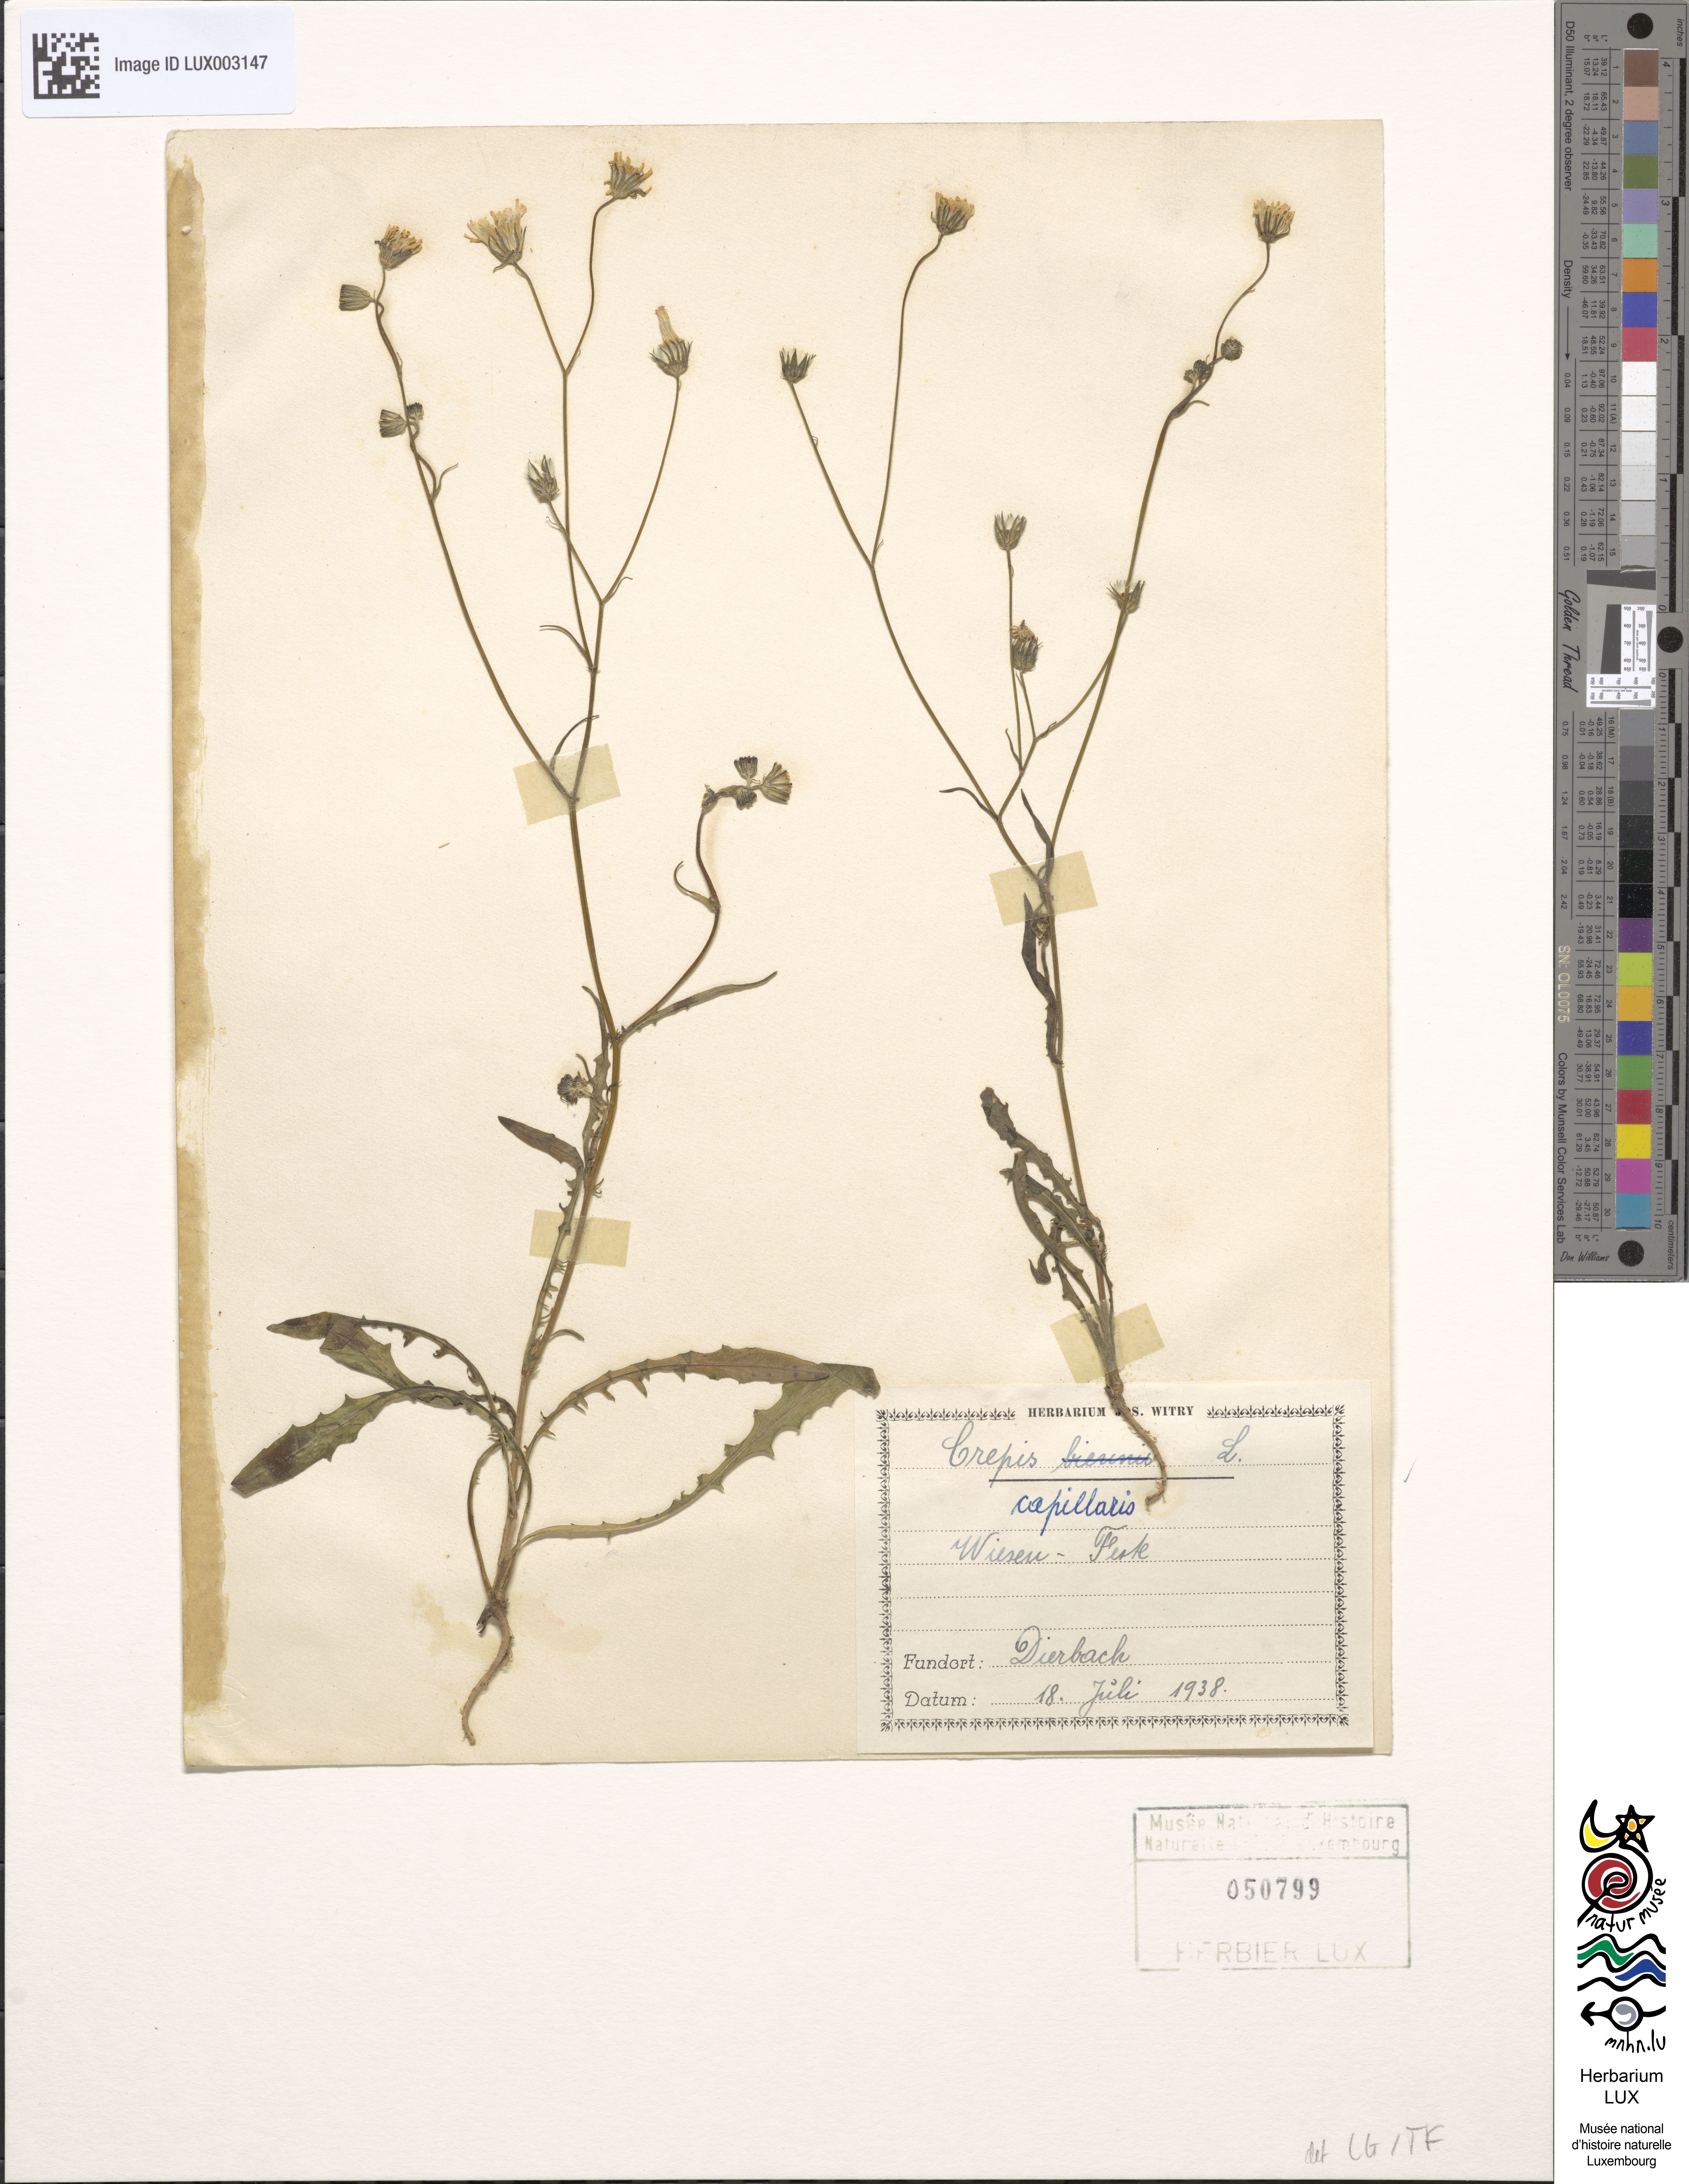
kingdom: Plantae
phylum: Tracheophyta
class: Magnoliopsida
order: Asterales
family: Asteraceae
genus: Crepis
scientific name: Crepis capillaris
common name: Smooth hawksbeard
